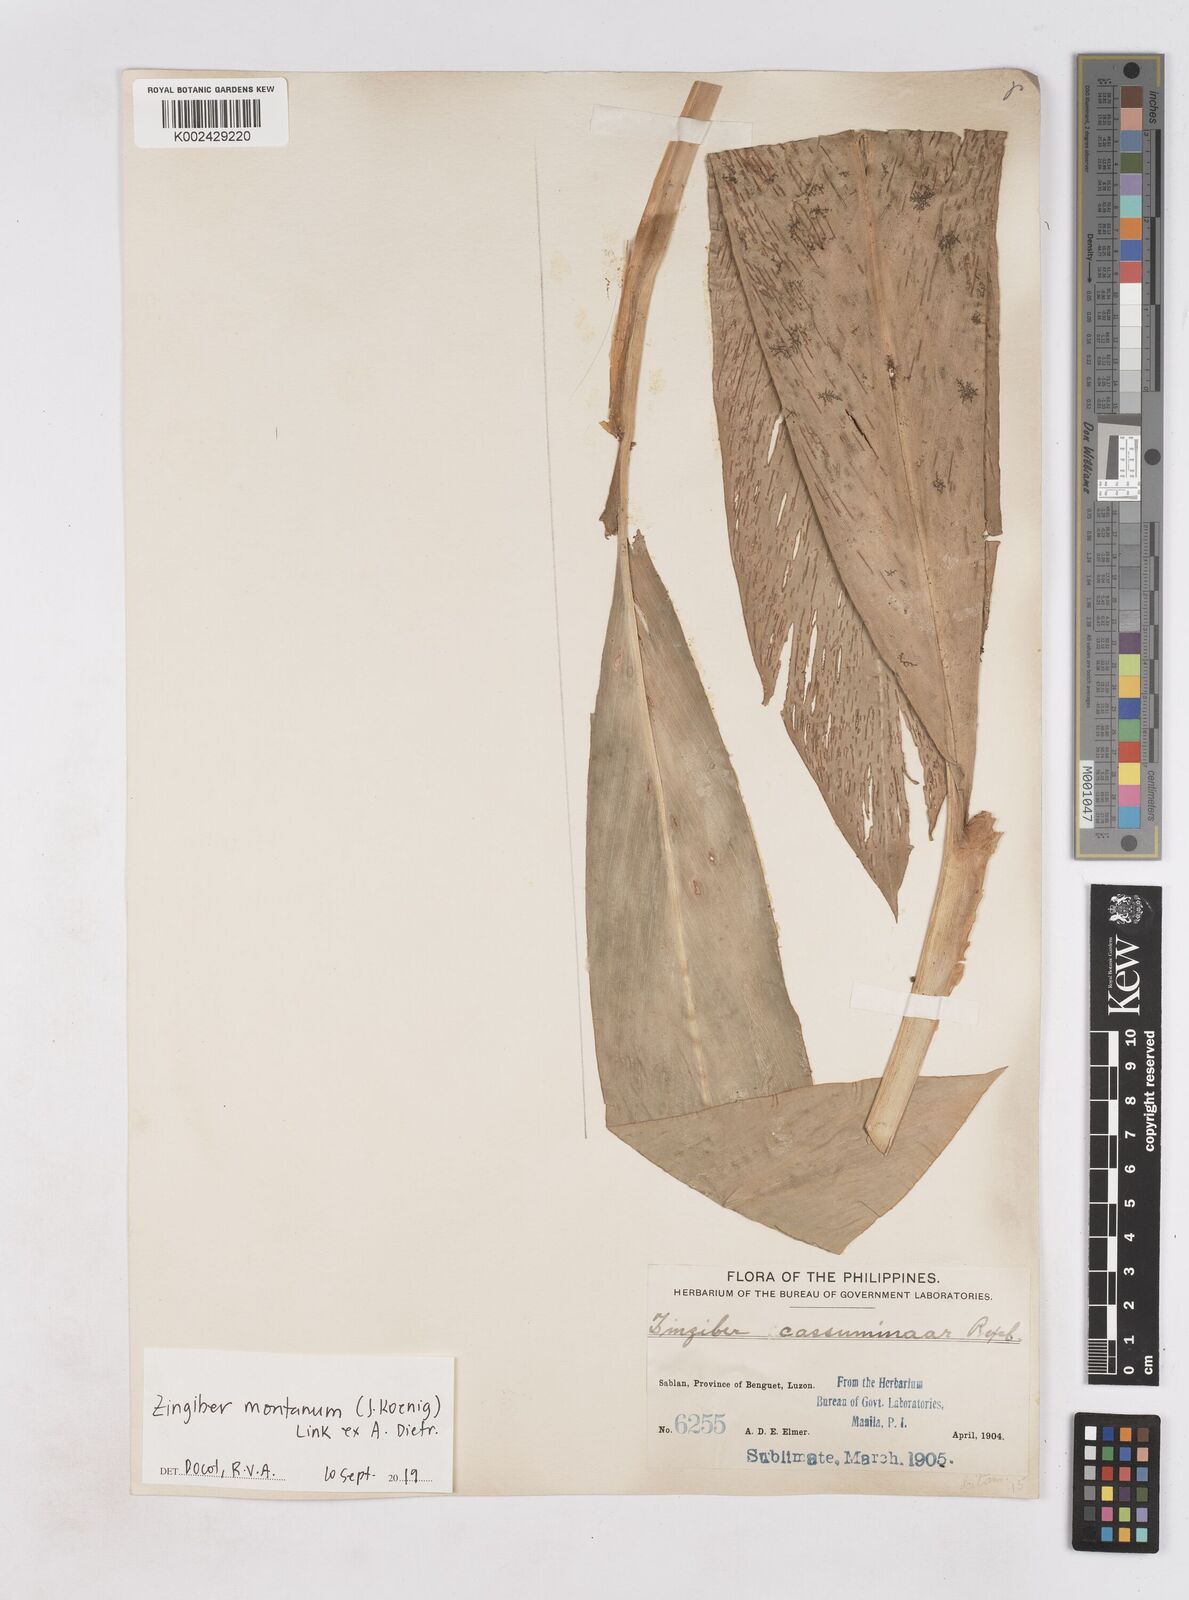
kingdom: Plantae
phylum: Tracheophyta
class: Liliopsida
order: Zingiberales
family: Zingiberaceae
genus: Zingiber
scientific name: Zingiber montanum
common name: Bengal ginger
